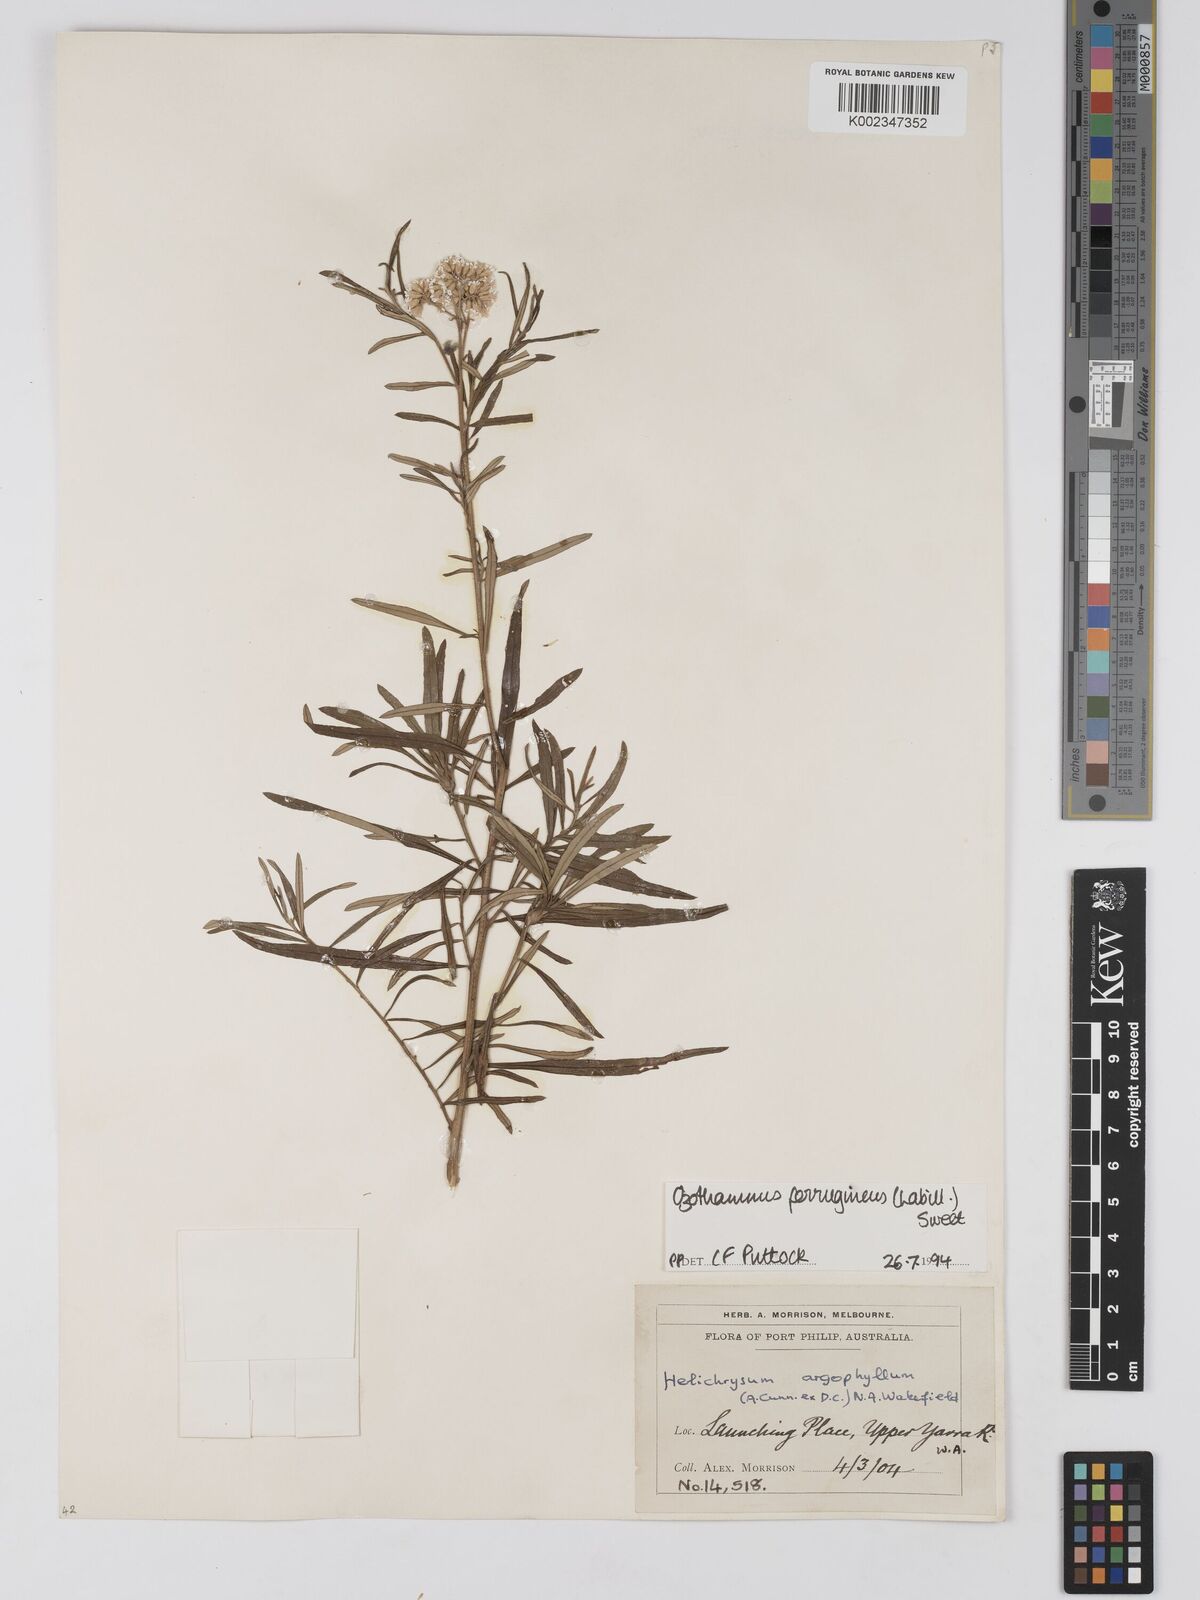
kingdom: Plantae
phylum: Tracheophyta
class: Magnoliopsida
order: Asterales
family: Asteraceae
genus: Ozothamnus
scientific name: Ozothamnus ferrugineus
